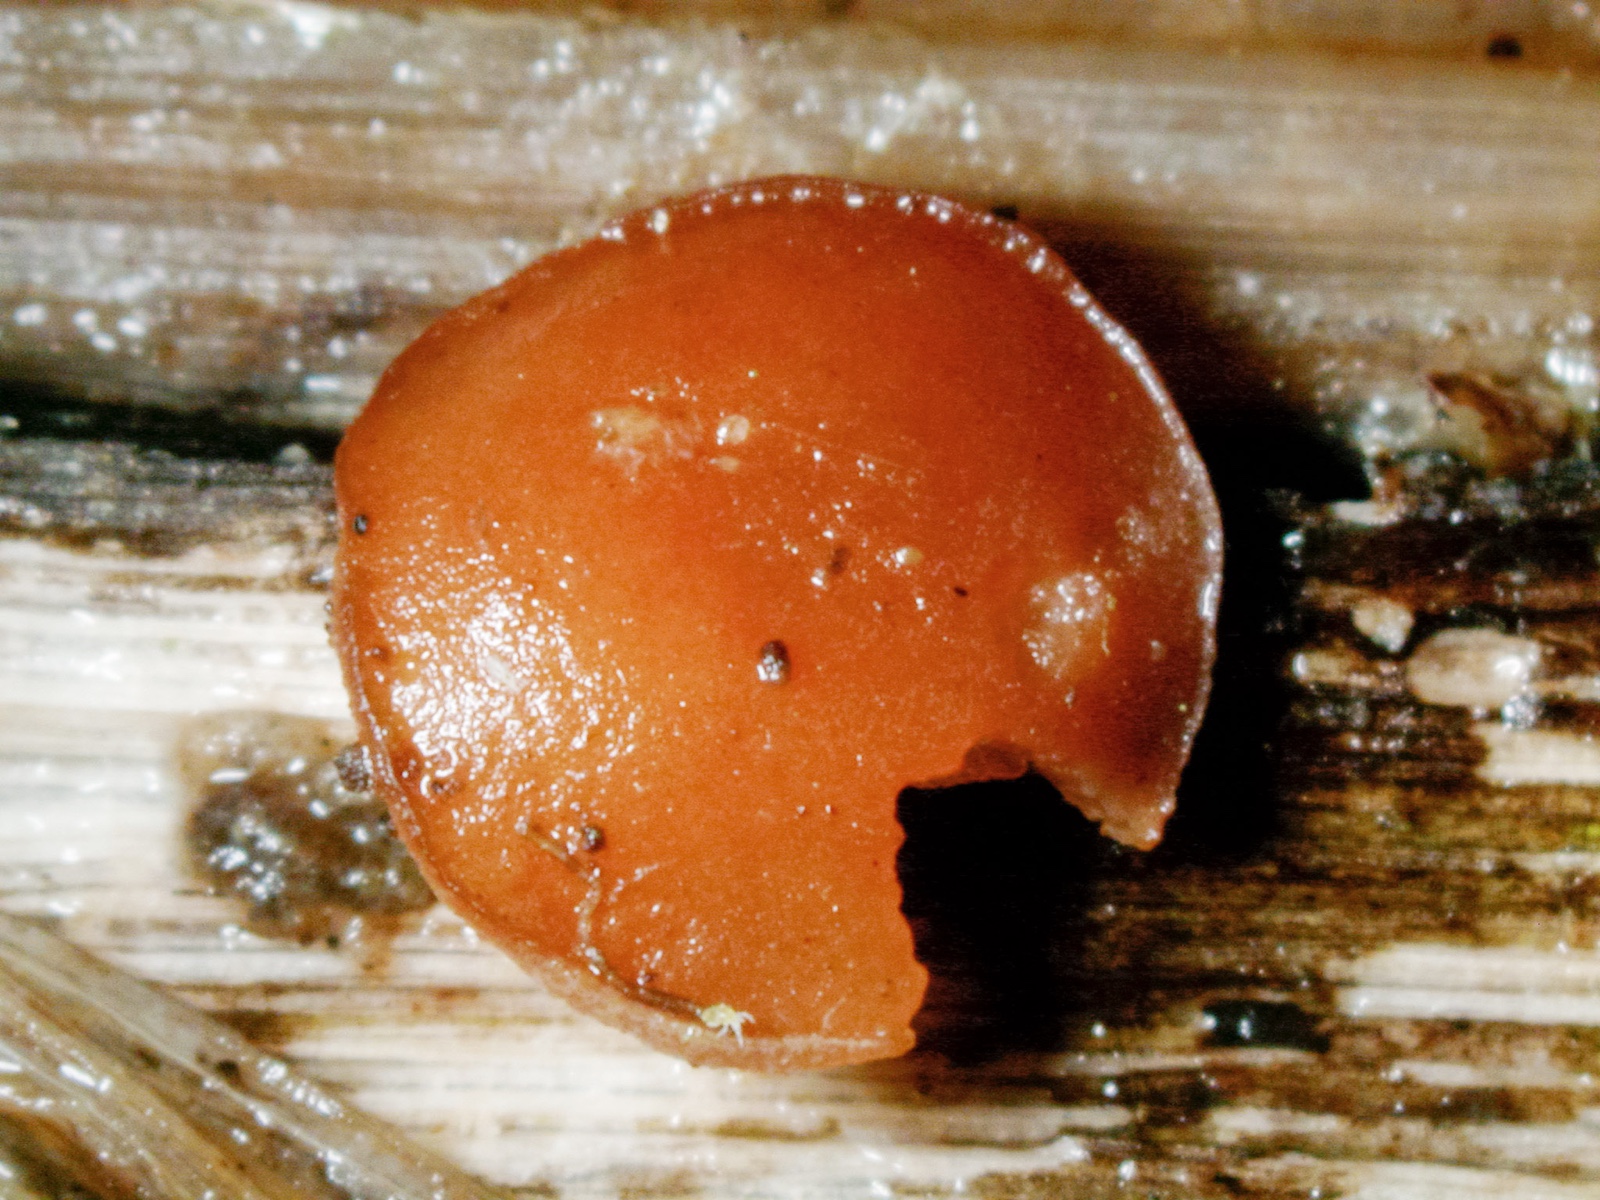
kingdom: Fungi
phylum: Ascomycota
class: Leotiomycetes
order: Helotiales
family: Sclerotiniaceae
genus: Clarireedia
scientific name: Clarireedia
